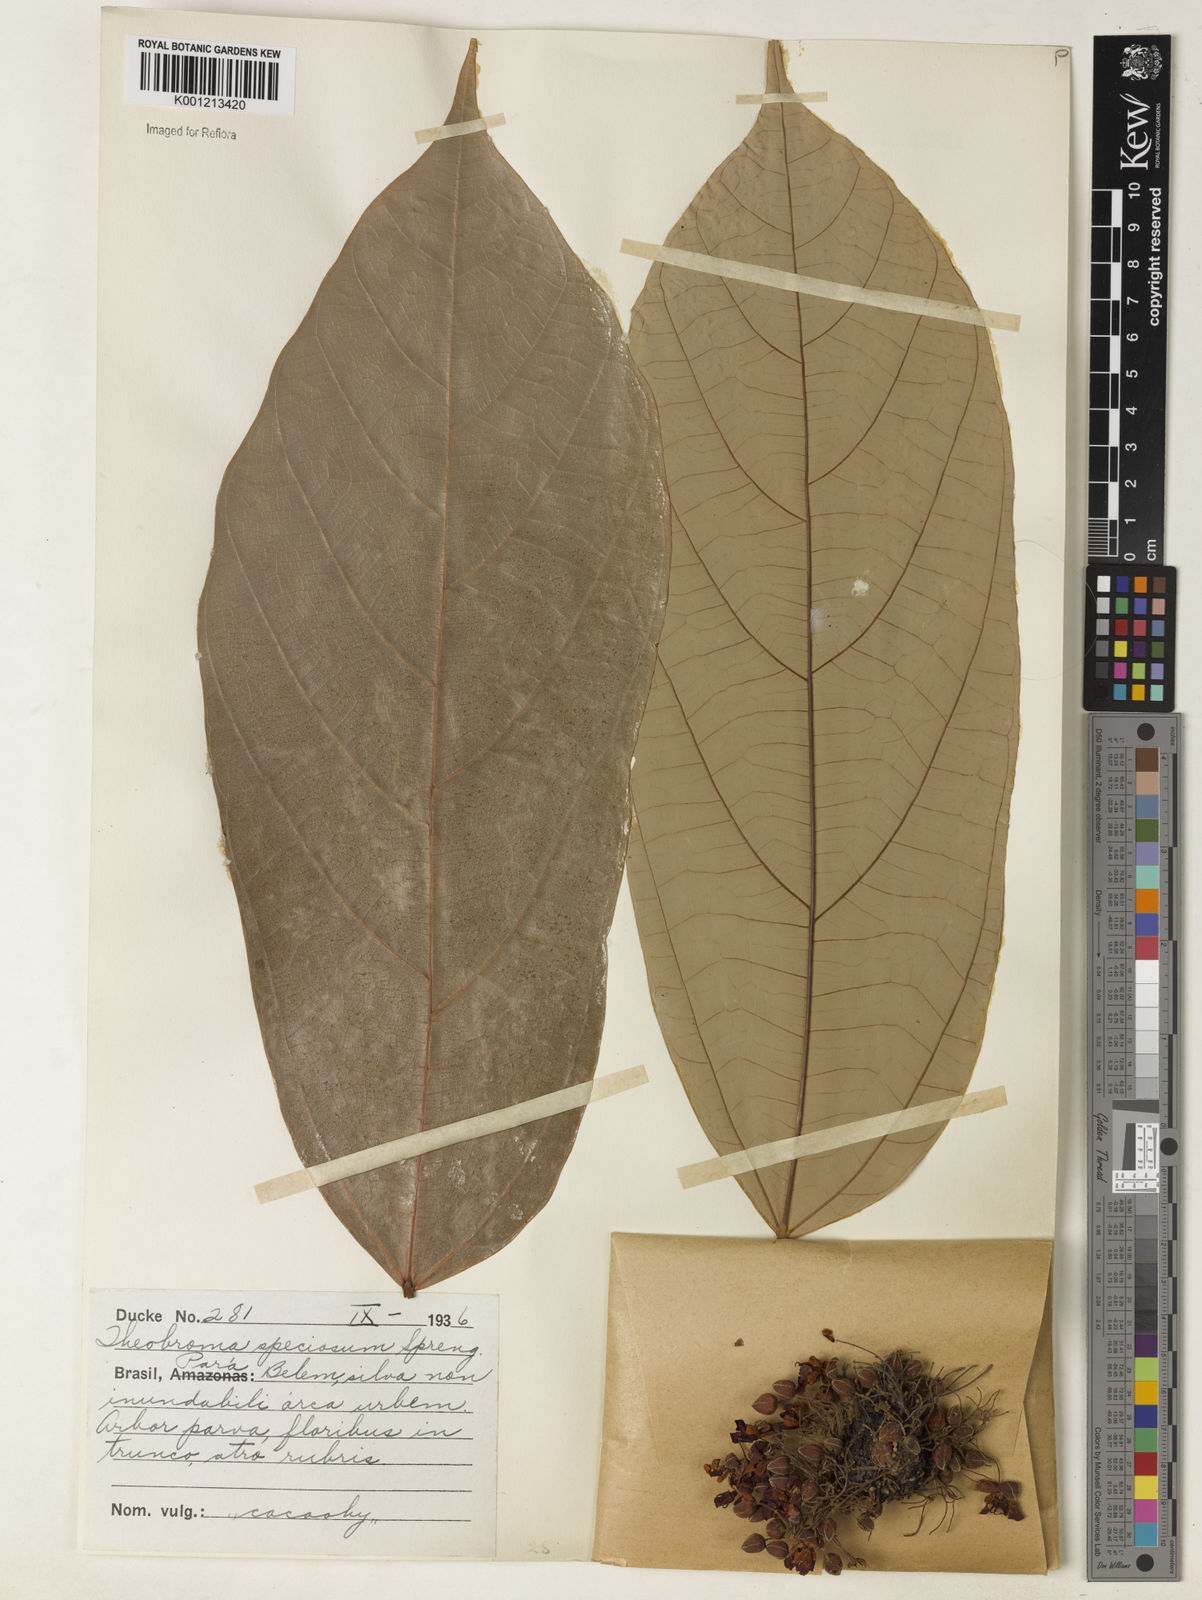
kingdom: Plantae
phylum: Tracheophyta
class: Magnoliopsida
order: Malvales
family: Malvaceae
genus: Theobroma
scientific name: Theobroma speciosum
